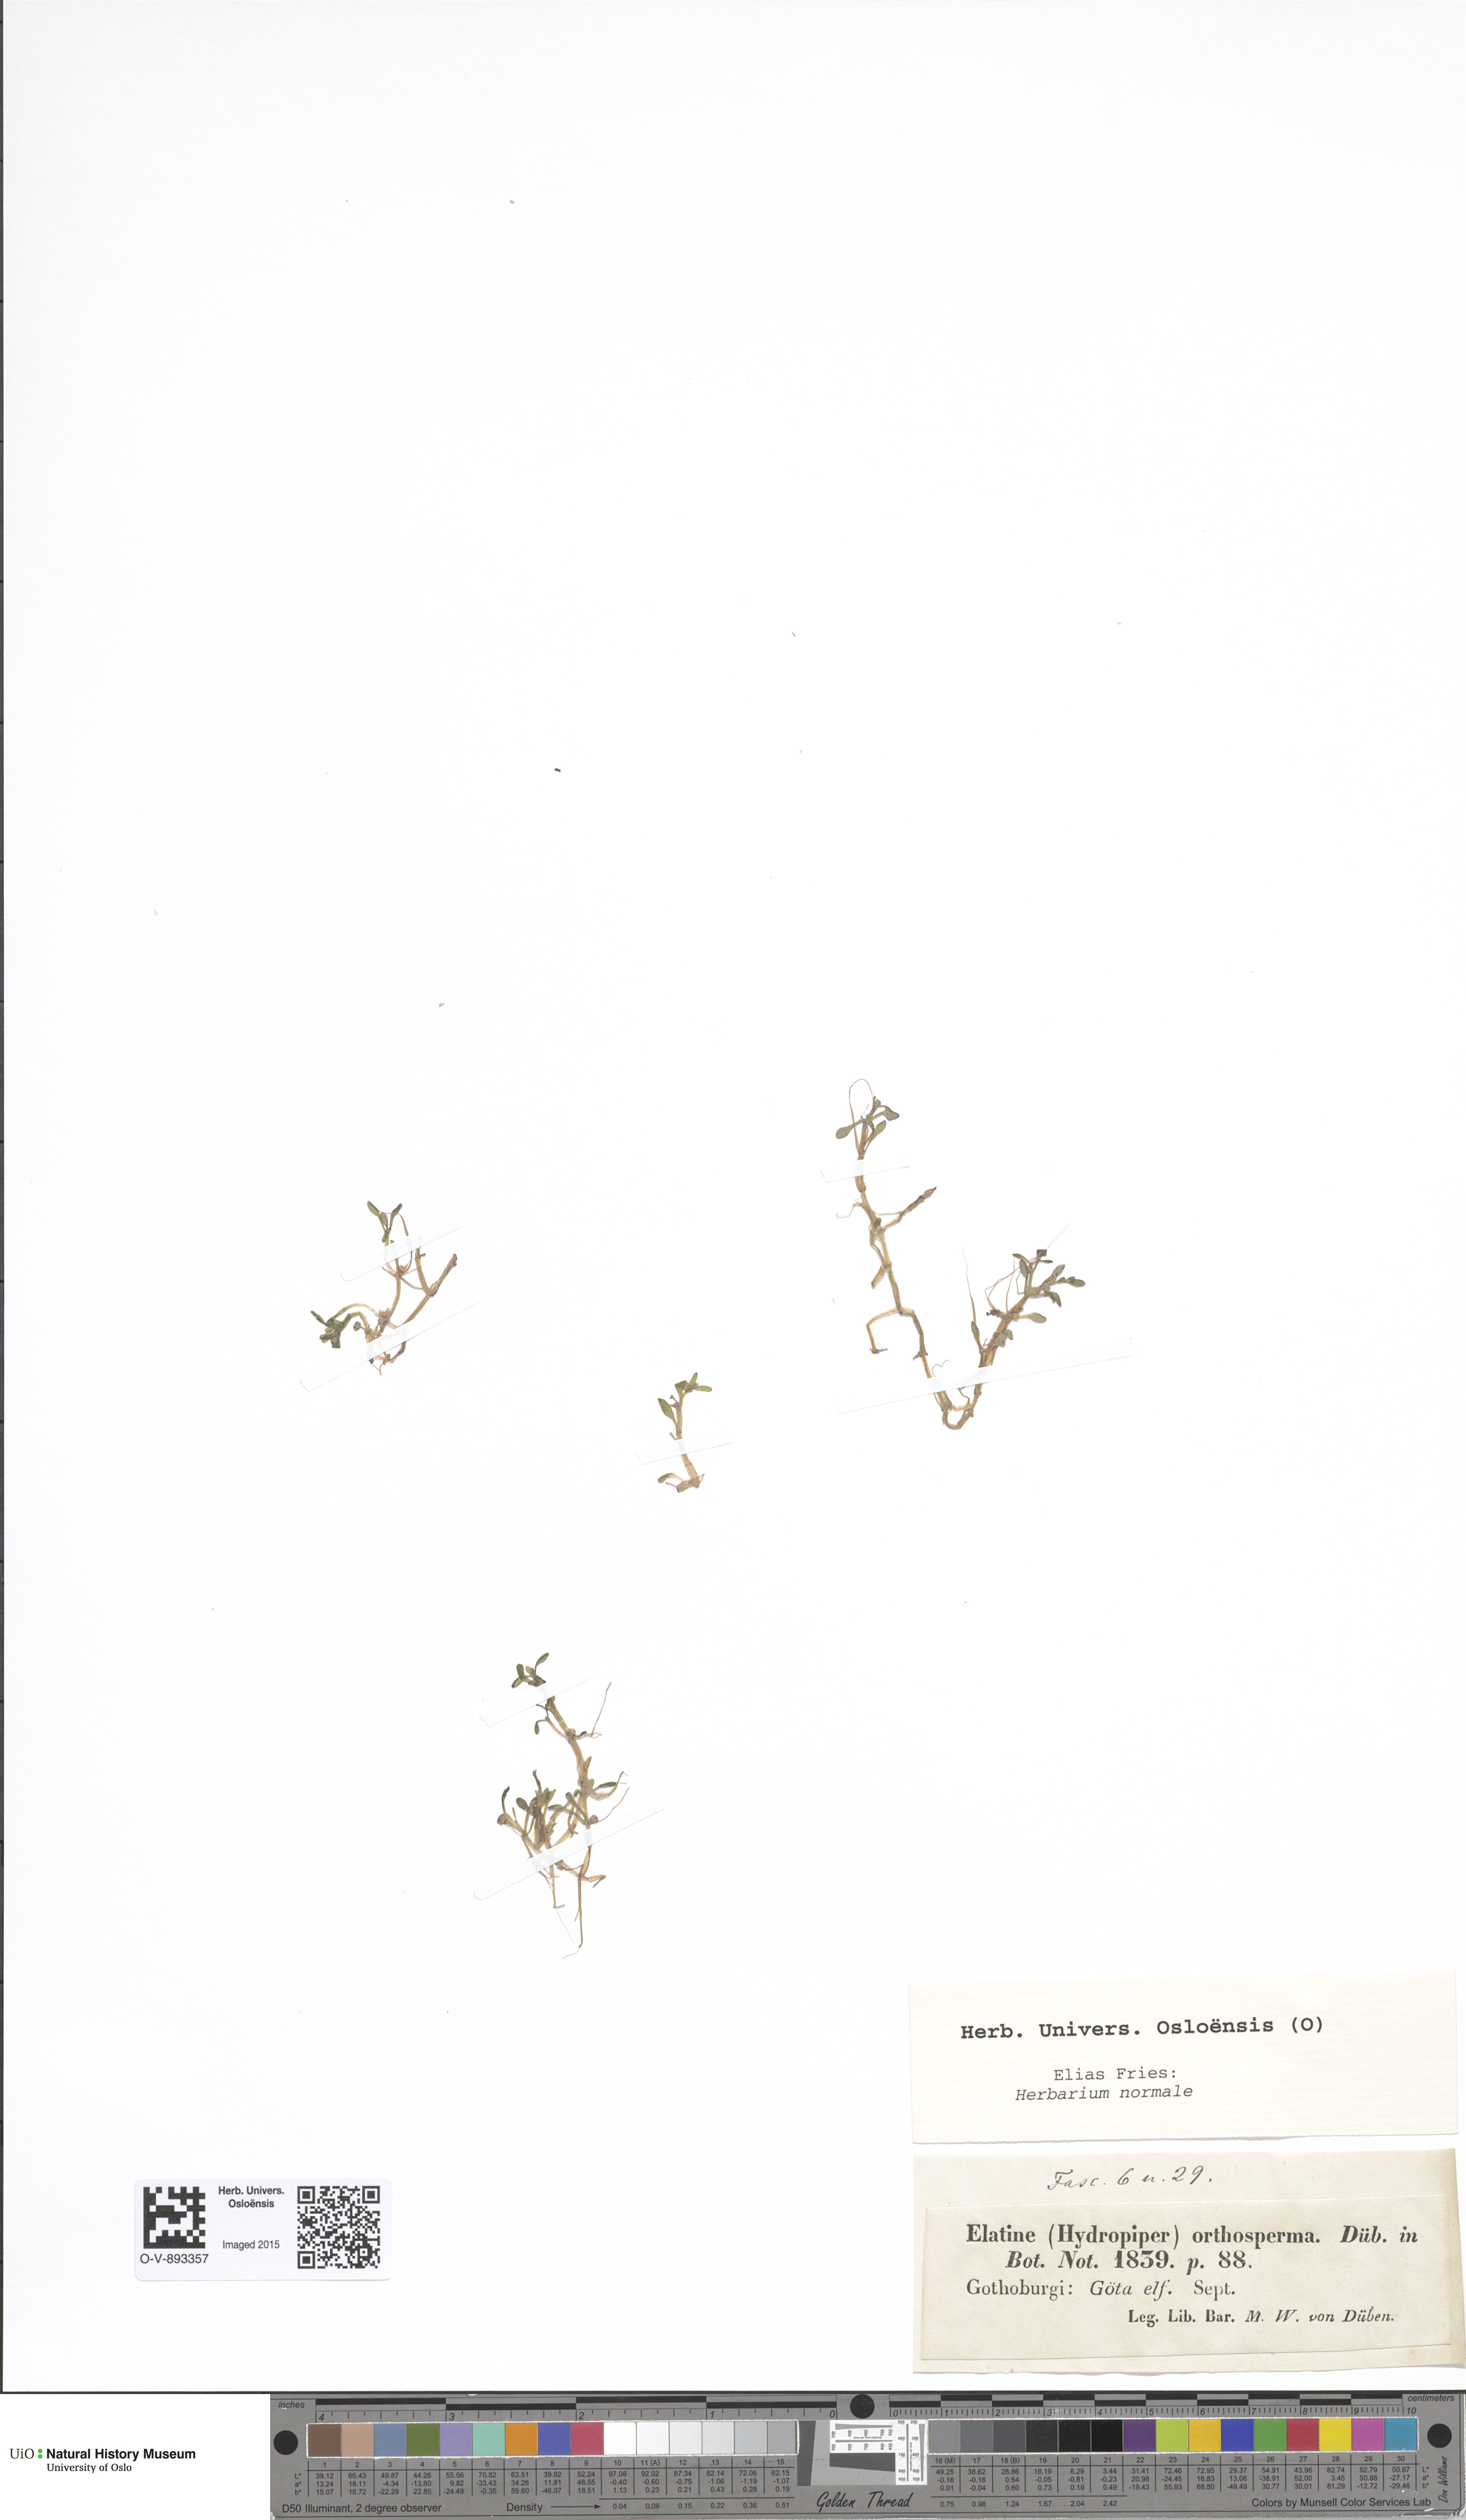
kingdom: Plantae
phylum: Tracheophyta
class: Magnoliopsida
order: Malpighiales
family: Elatinaceae
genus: Elatine
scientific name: Elatine orthosperma
